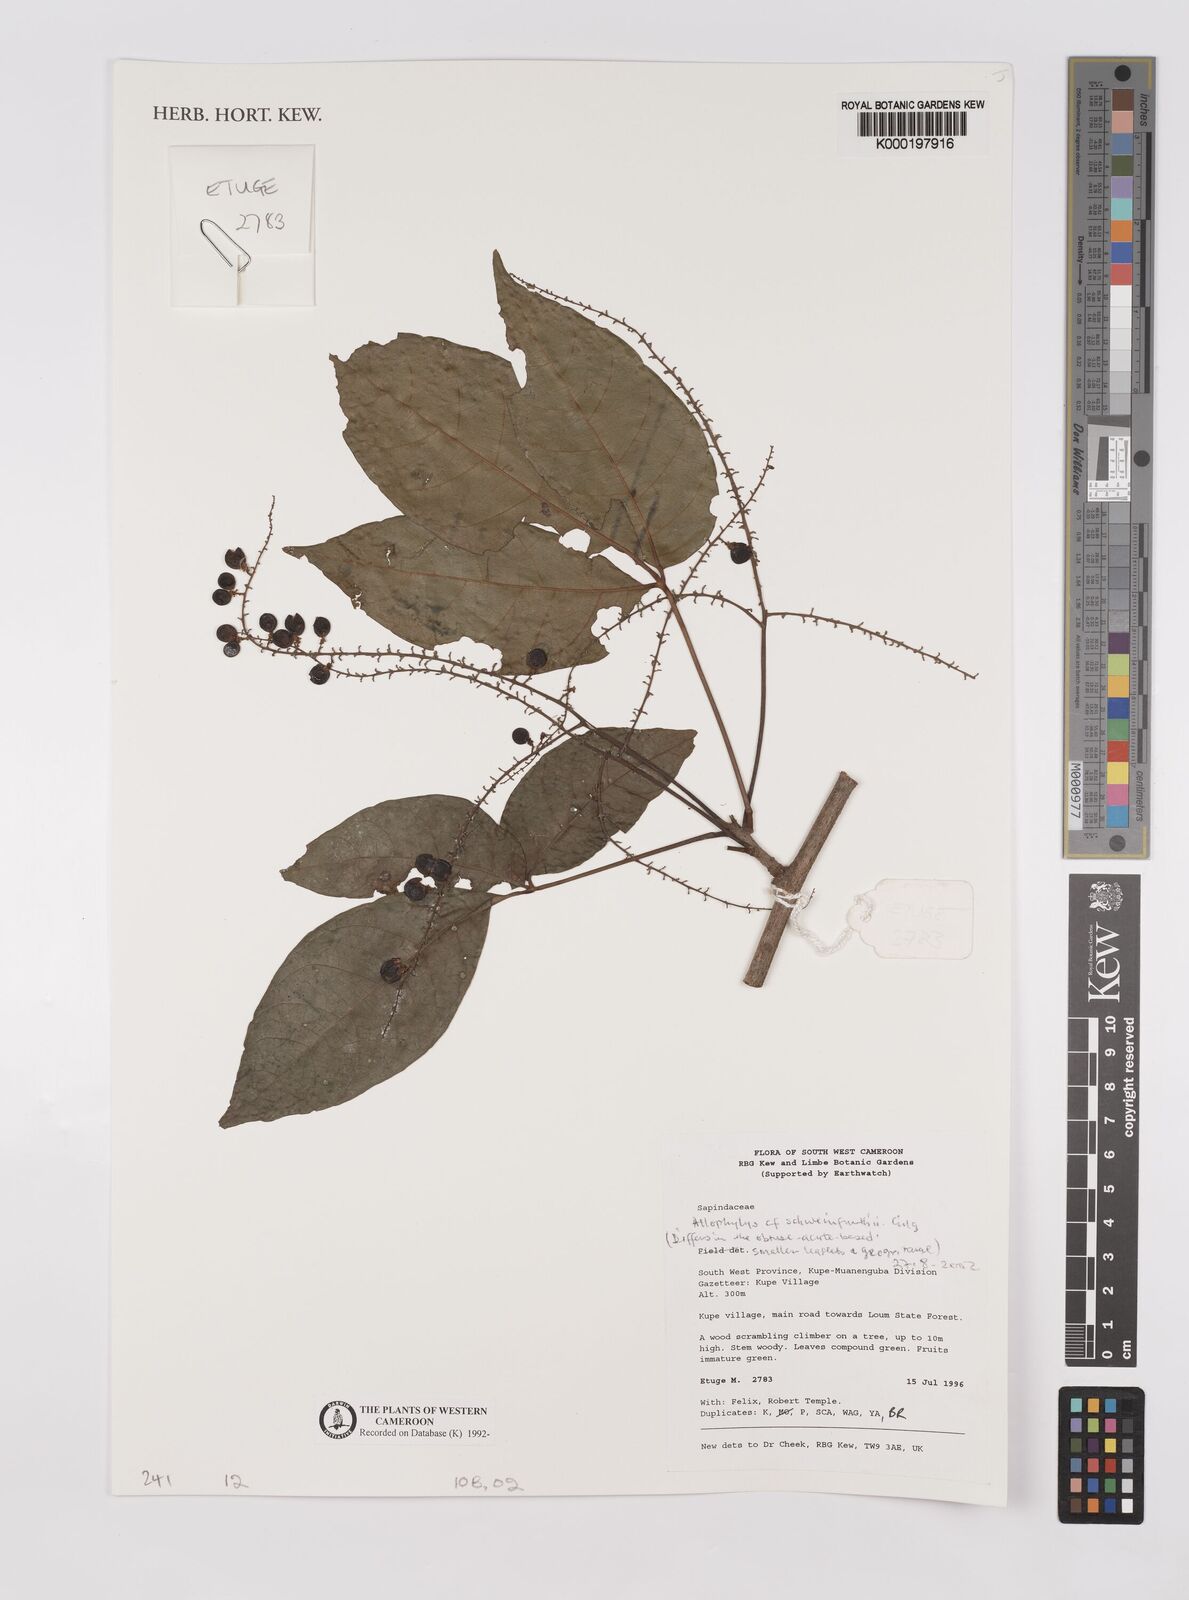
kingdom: Plantae
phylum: Tracheophyta
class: Magnoliopsida
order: Sapindales
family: Sapindaceae
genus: Allophylus
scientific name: Allophylus schweinfurthii
